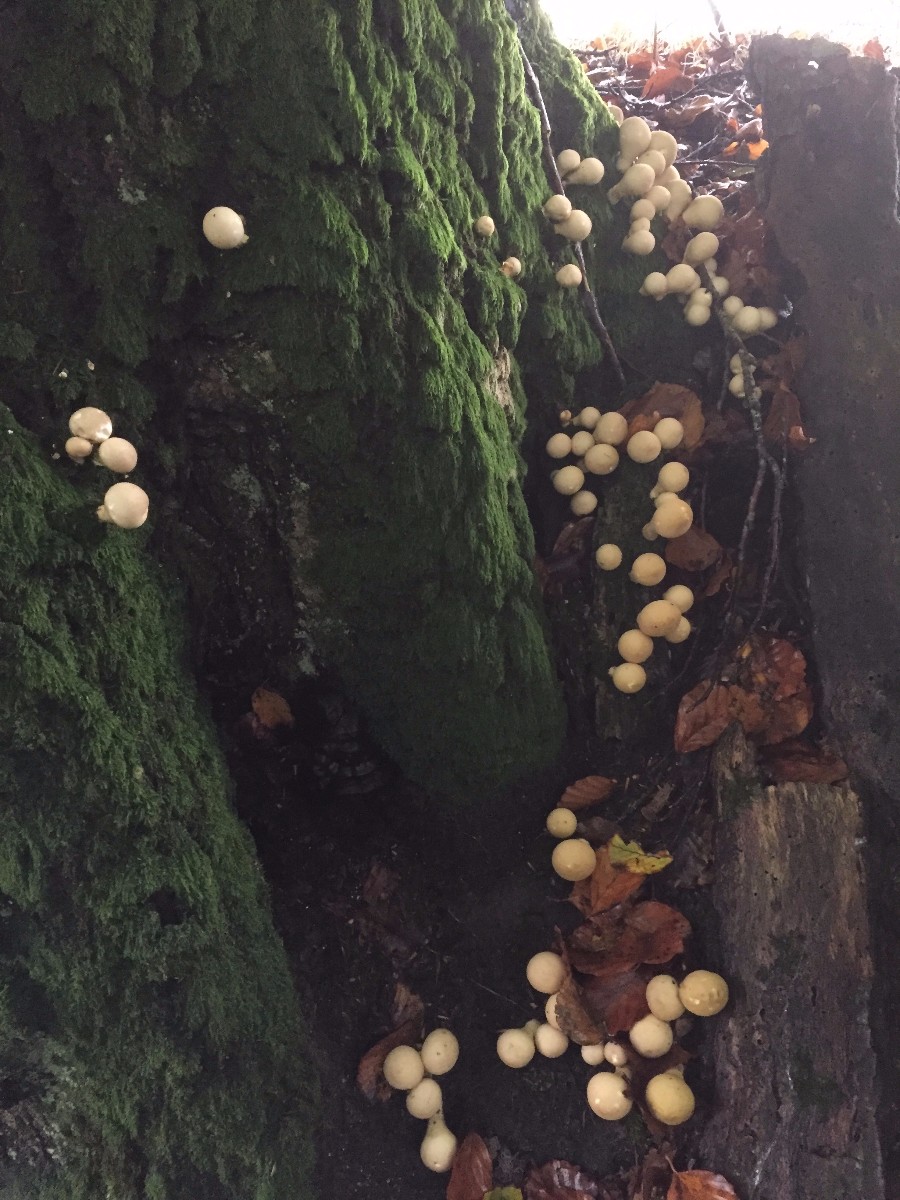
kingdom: Fungi
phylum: Basidiomycota
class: Agaricomycetes
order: Agaricales
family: Lycoperdaceae
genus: Apioperdon
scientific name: Apioperdon pyriforme
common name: pære-støvbold
